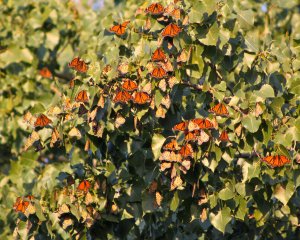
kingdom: Animalia
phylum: Arthropoda
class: Insecta
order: Lepidoptera
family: Nymphalidae
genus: Danaus
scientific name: Danaus plexippus
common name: Monarch
